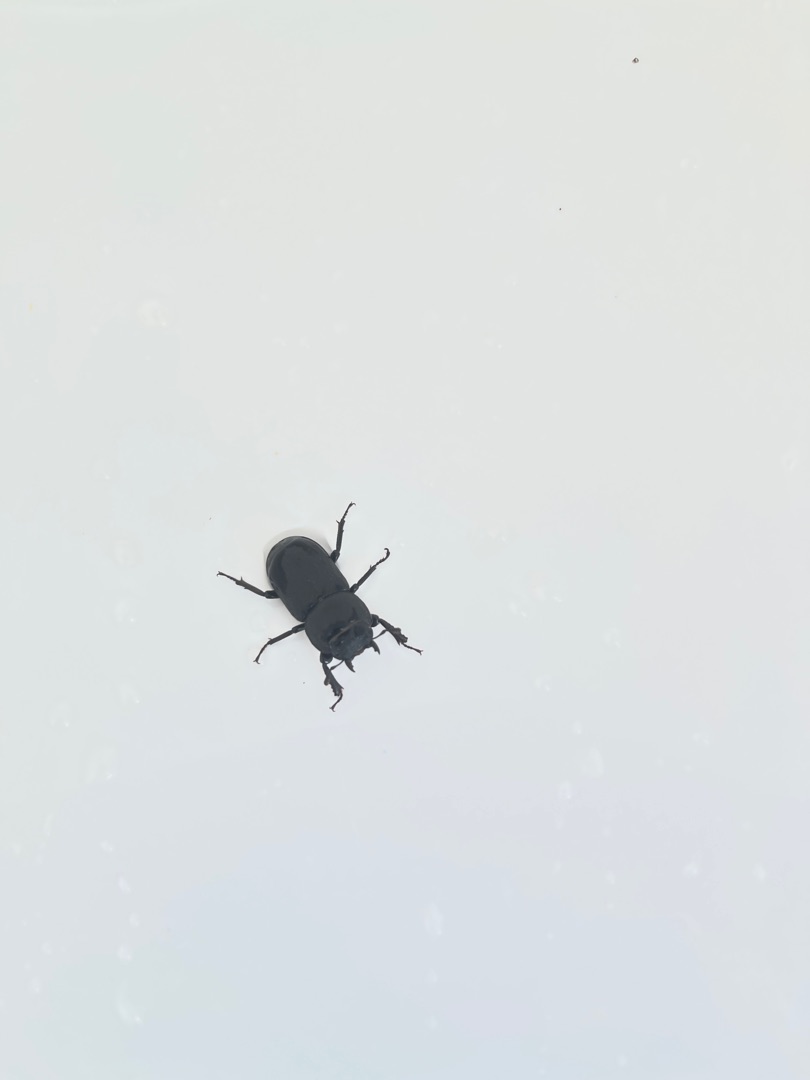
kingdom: Animalia
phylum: Arthropoda
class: Insecta
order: Coleoptera
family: Lucanidae
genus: Dorcus
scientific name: Dorcus parallelipipedus
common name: Bøghjort
